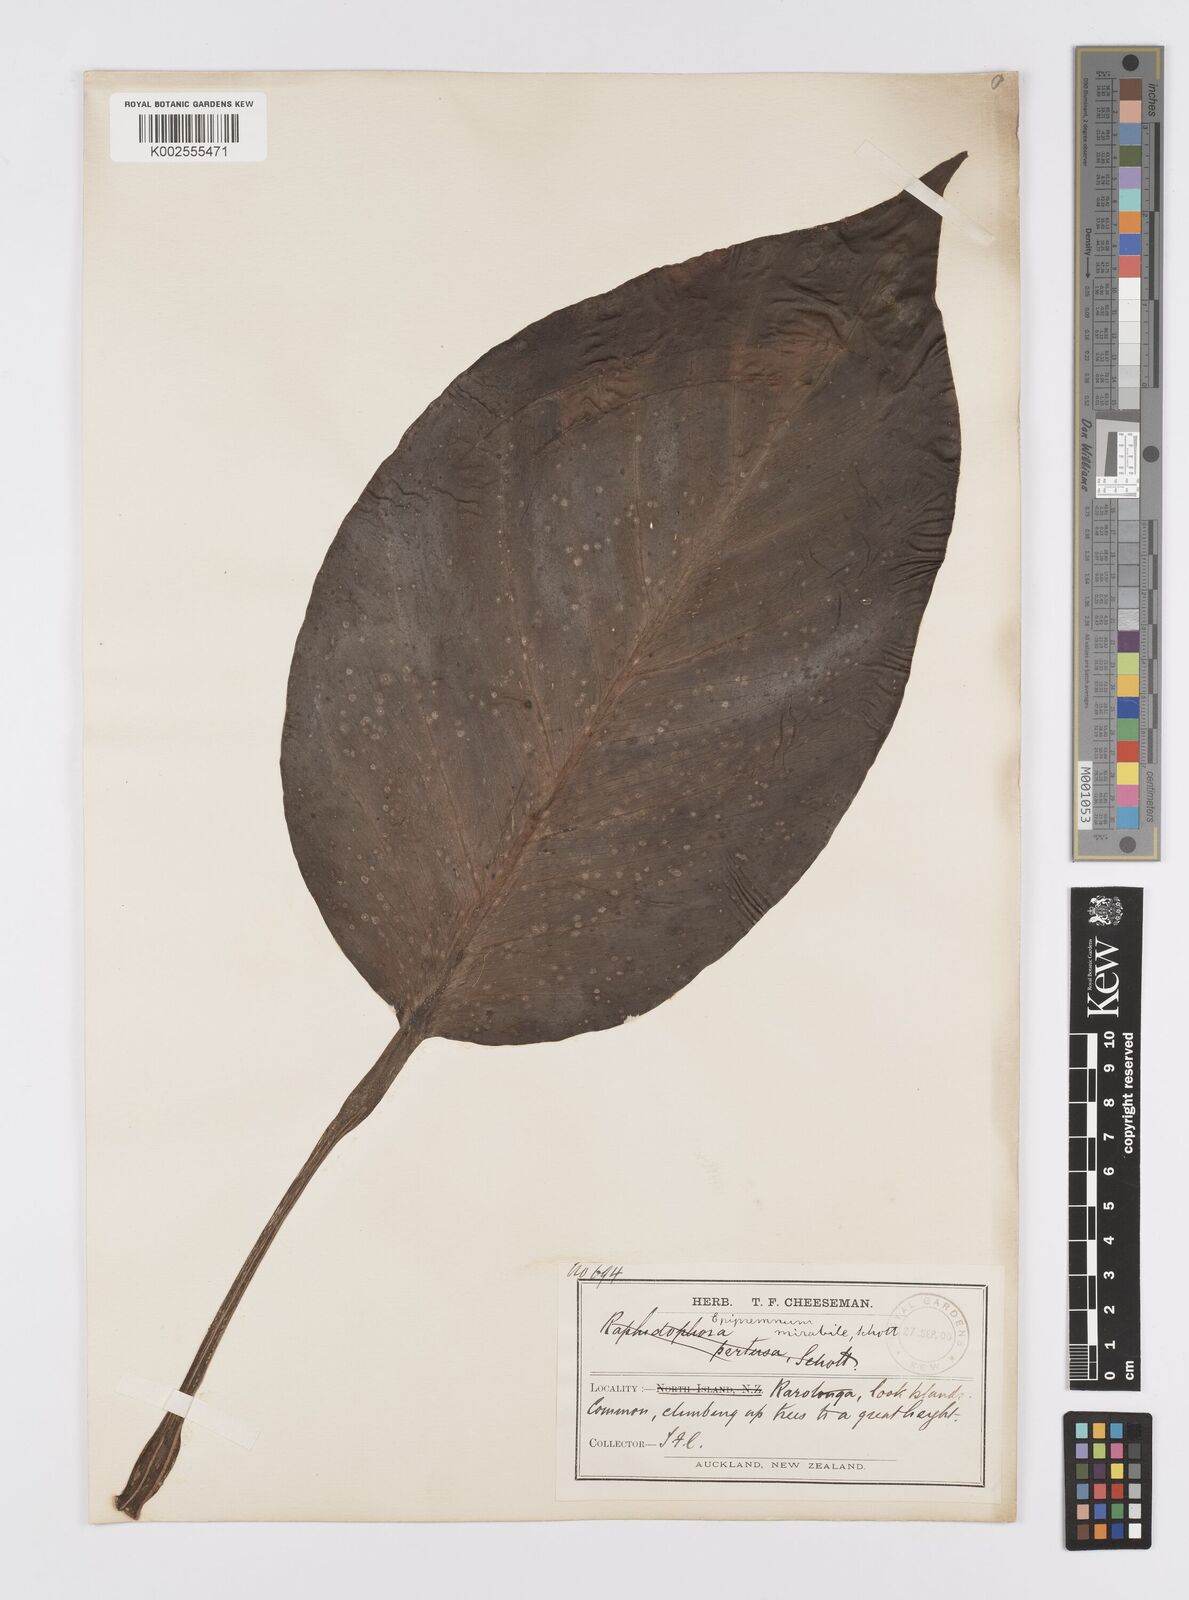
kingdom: Plantae
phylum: Tracheophyta
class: Liliopsida
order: Alismatales
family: Araceae
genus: Epipremnum
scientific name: Epipremnum pinnatum
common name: Centipede tongavine
